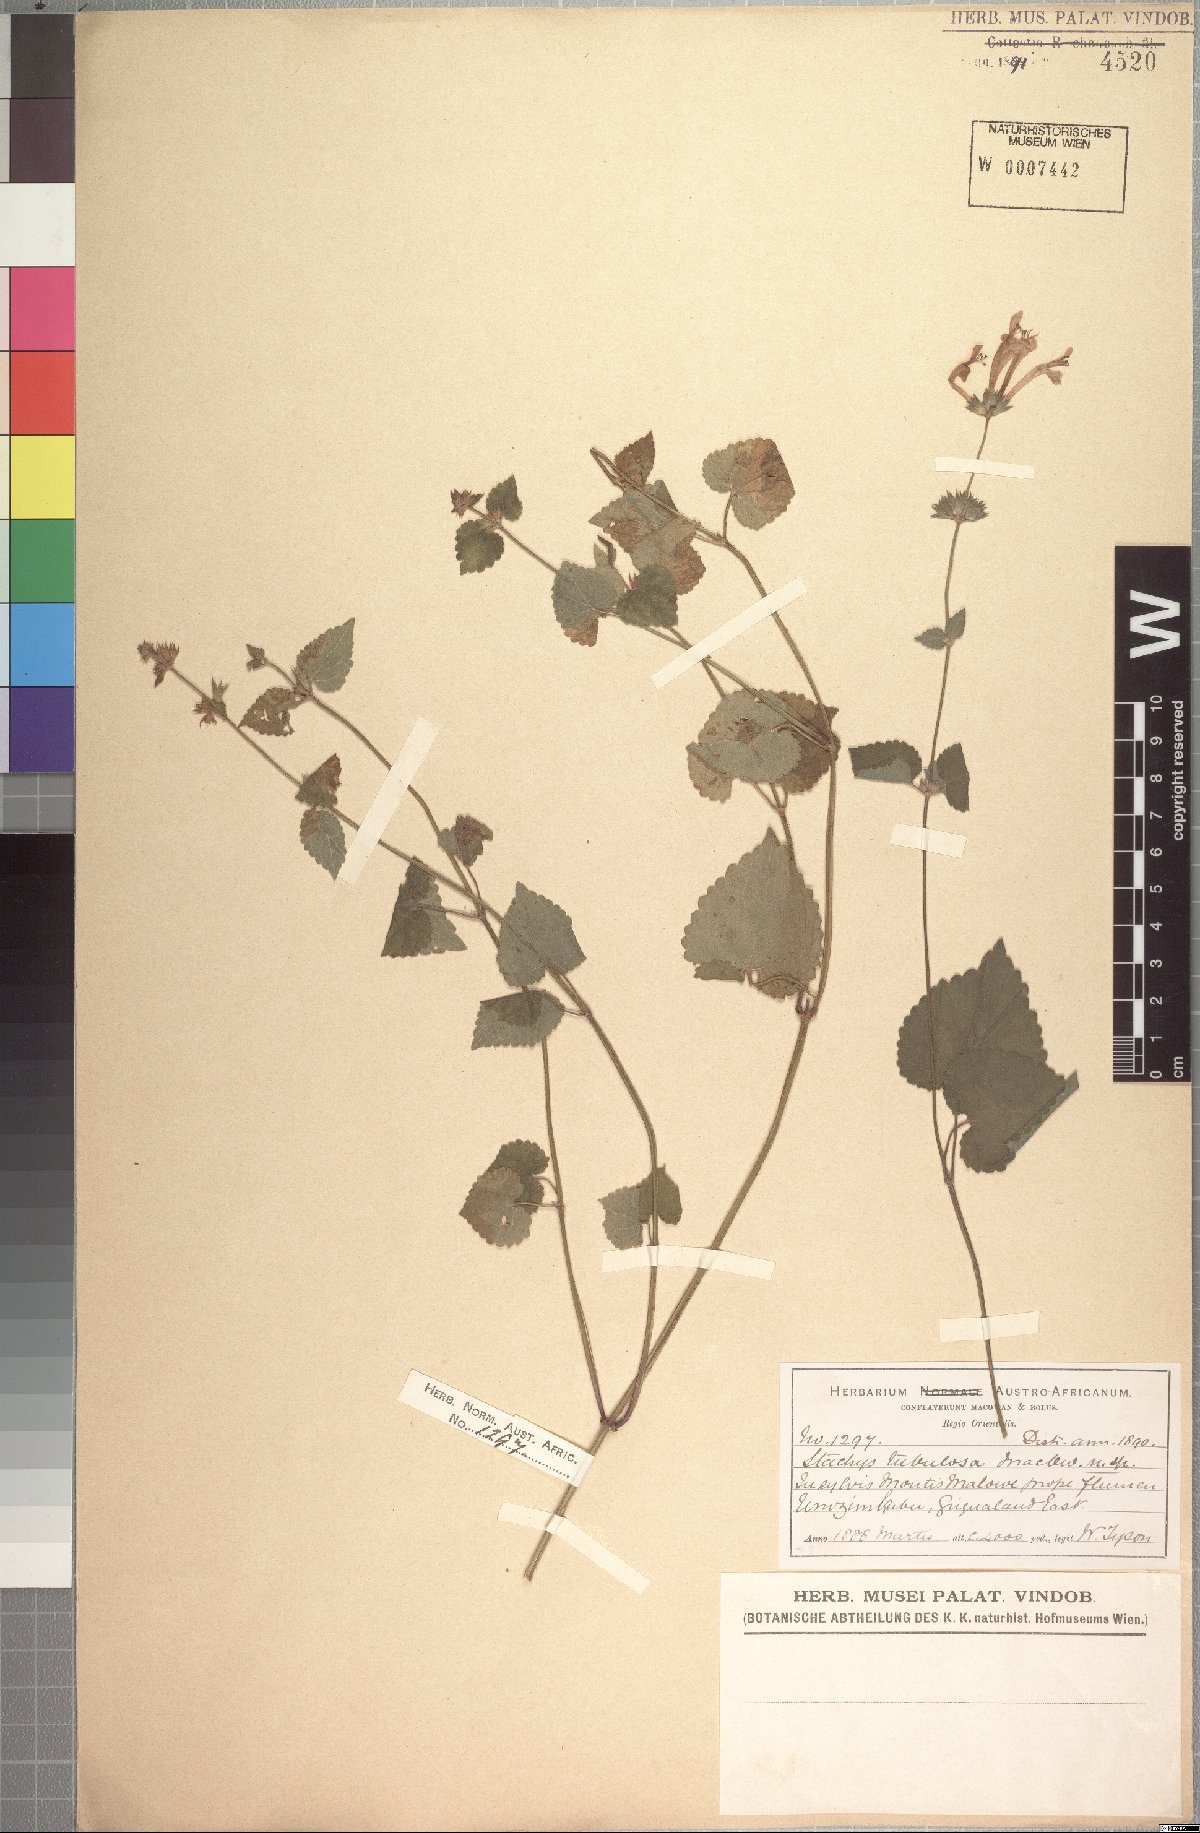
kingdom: Plantae
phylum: Tracheophyta
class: Magnoliopsida
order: Lamiales
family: Lamiaceae
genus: Stachys
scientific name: Stachys tubulosa
